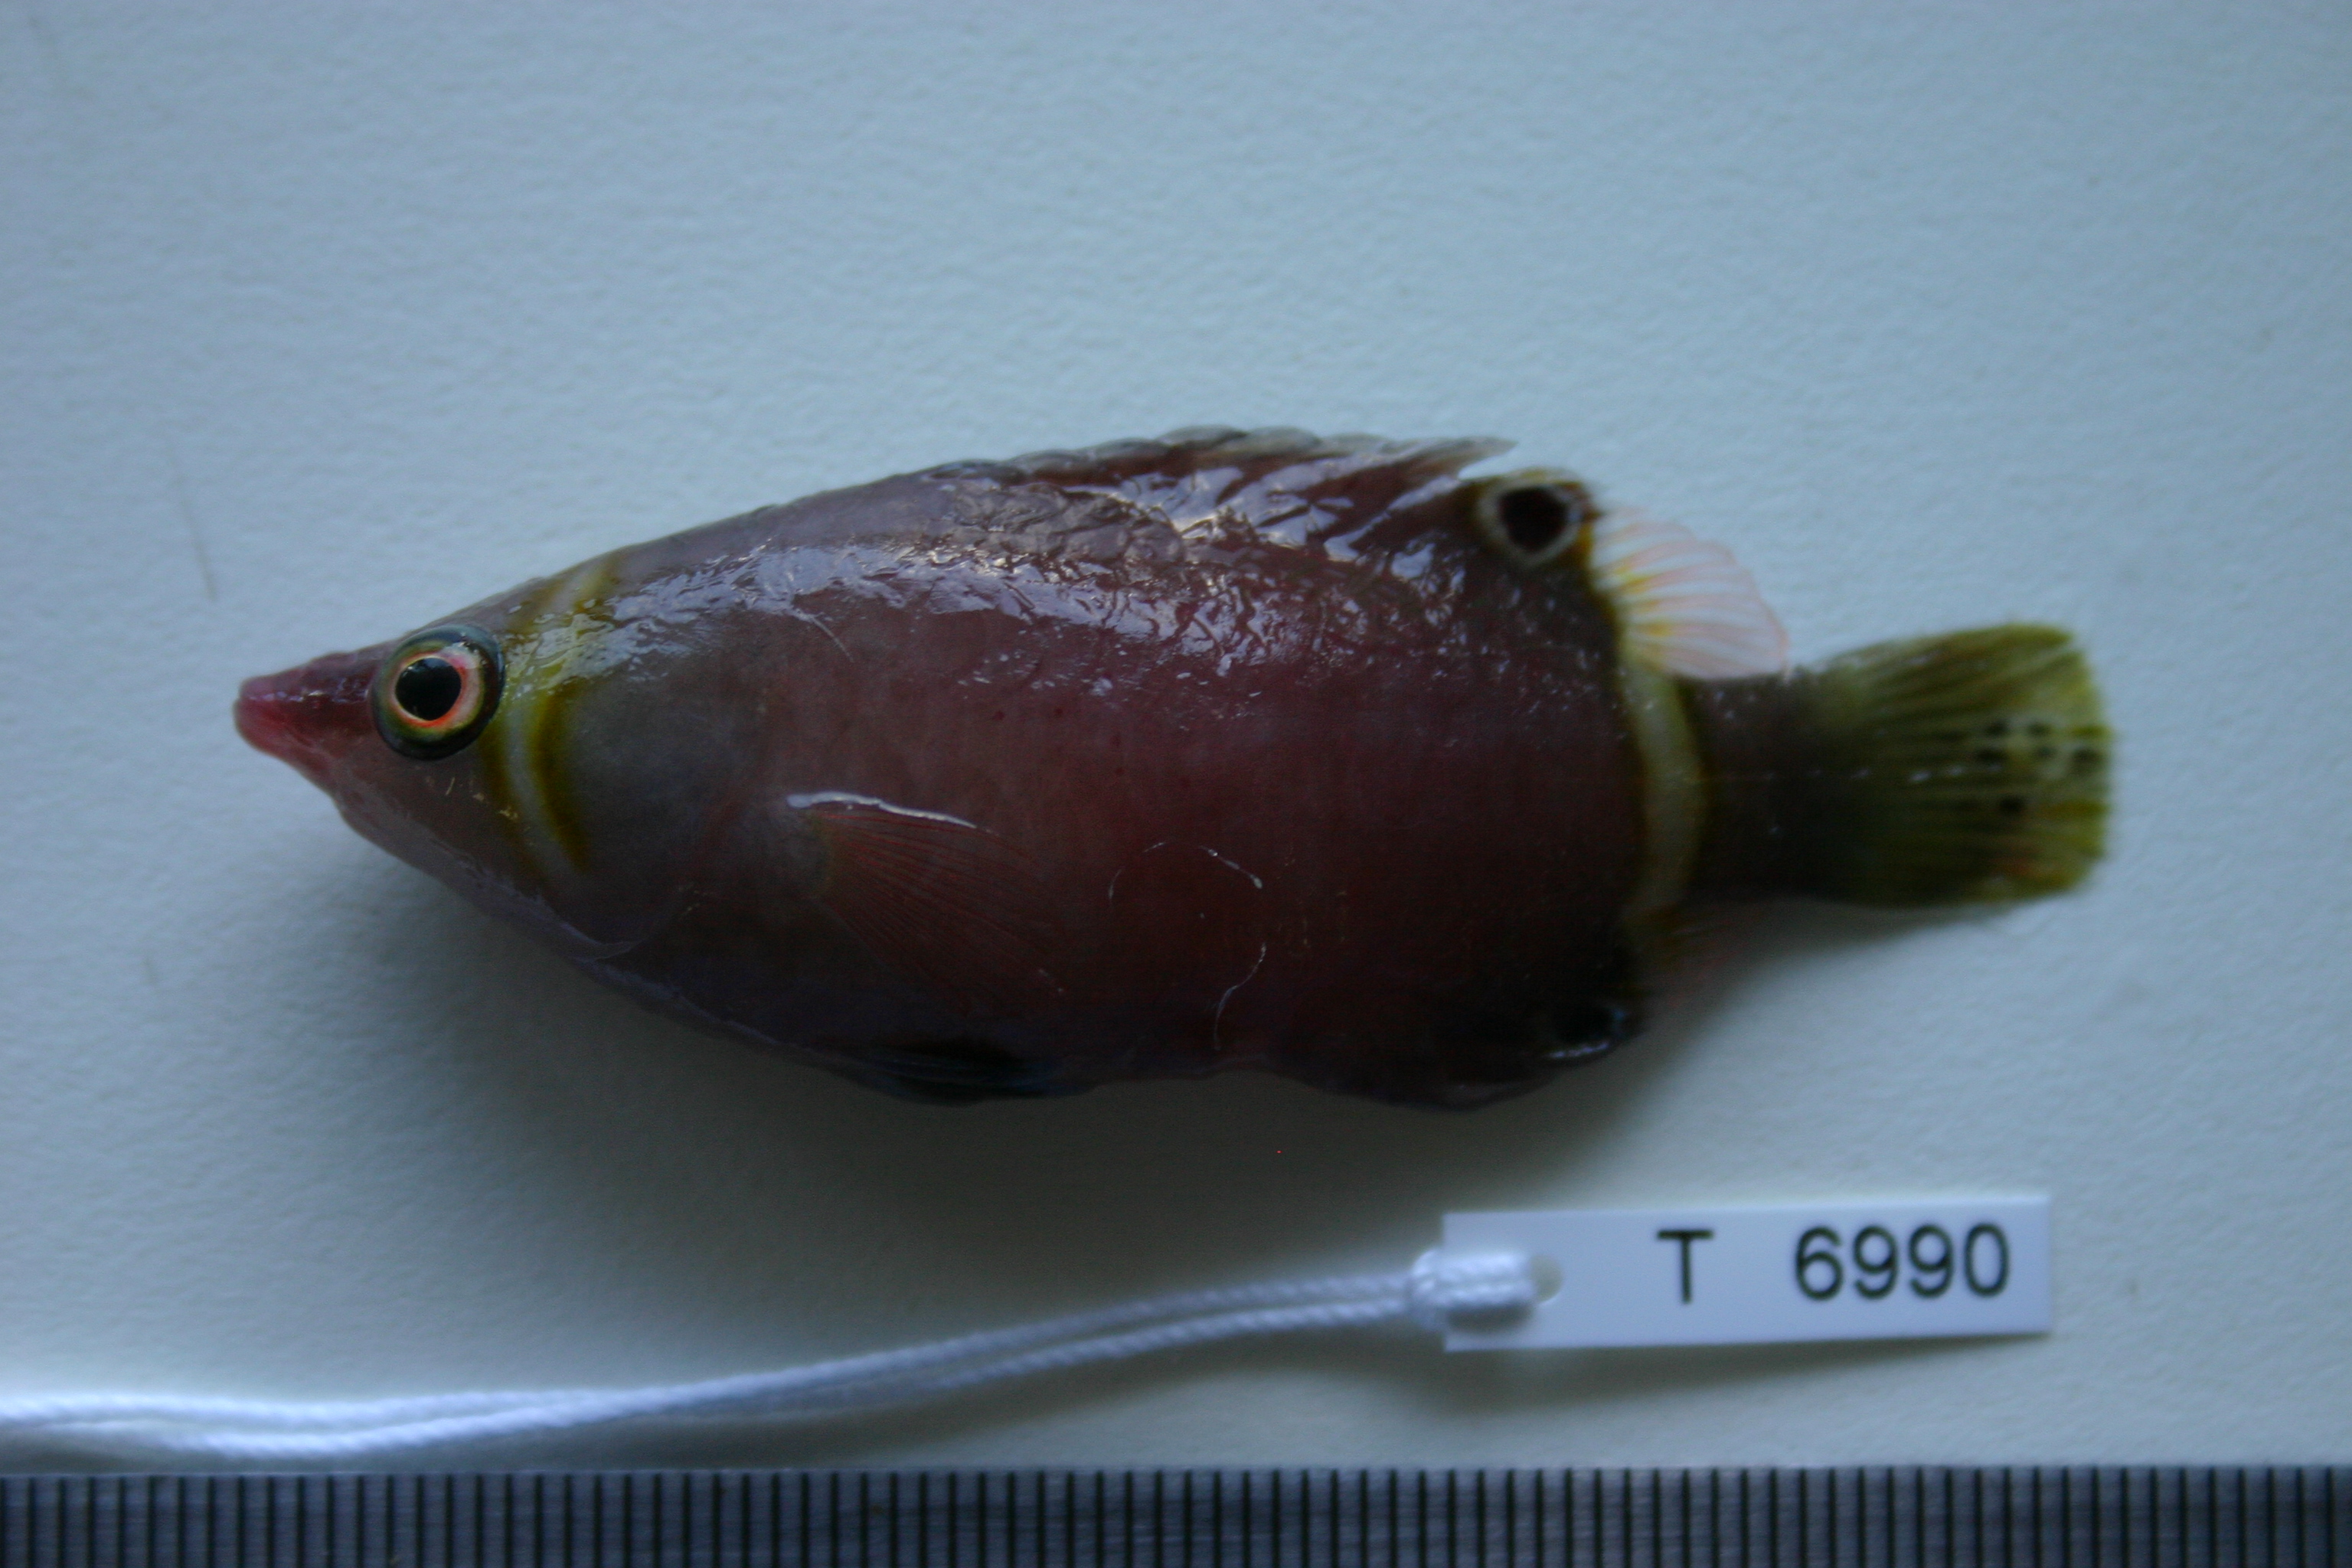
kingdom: Animalia
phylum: Chordata
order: Perciformes
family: Labridae
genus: Wetmorella
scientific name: Wetmorella nigropinnata
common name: Sharpnose wrasse
